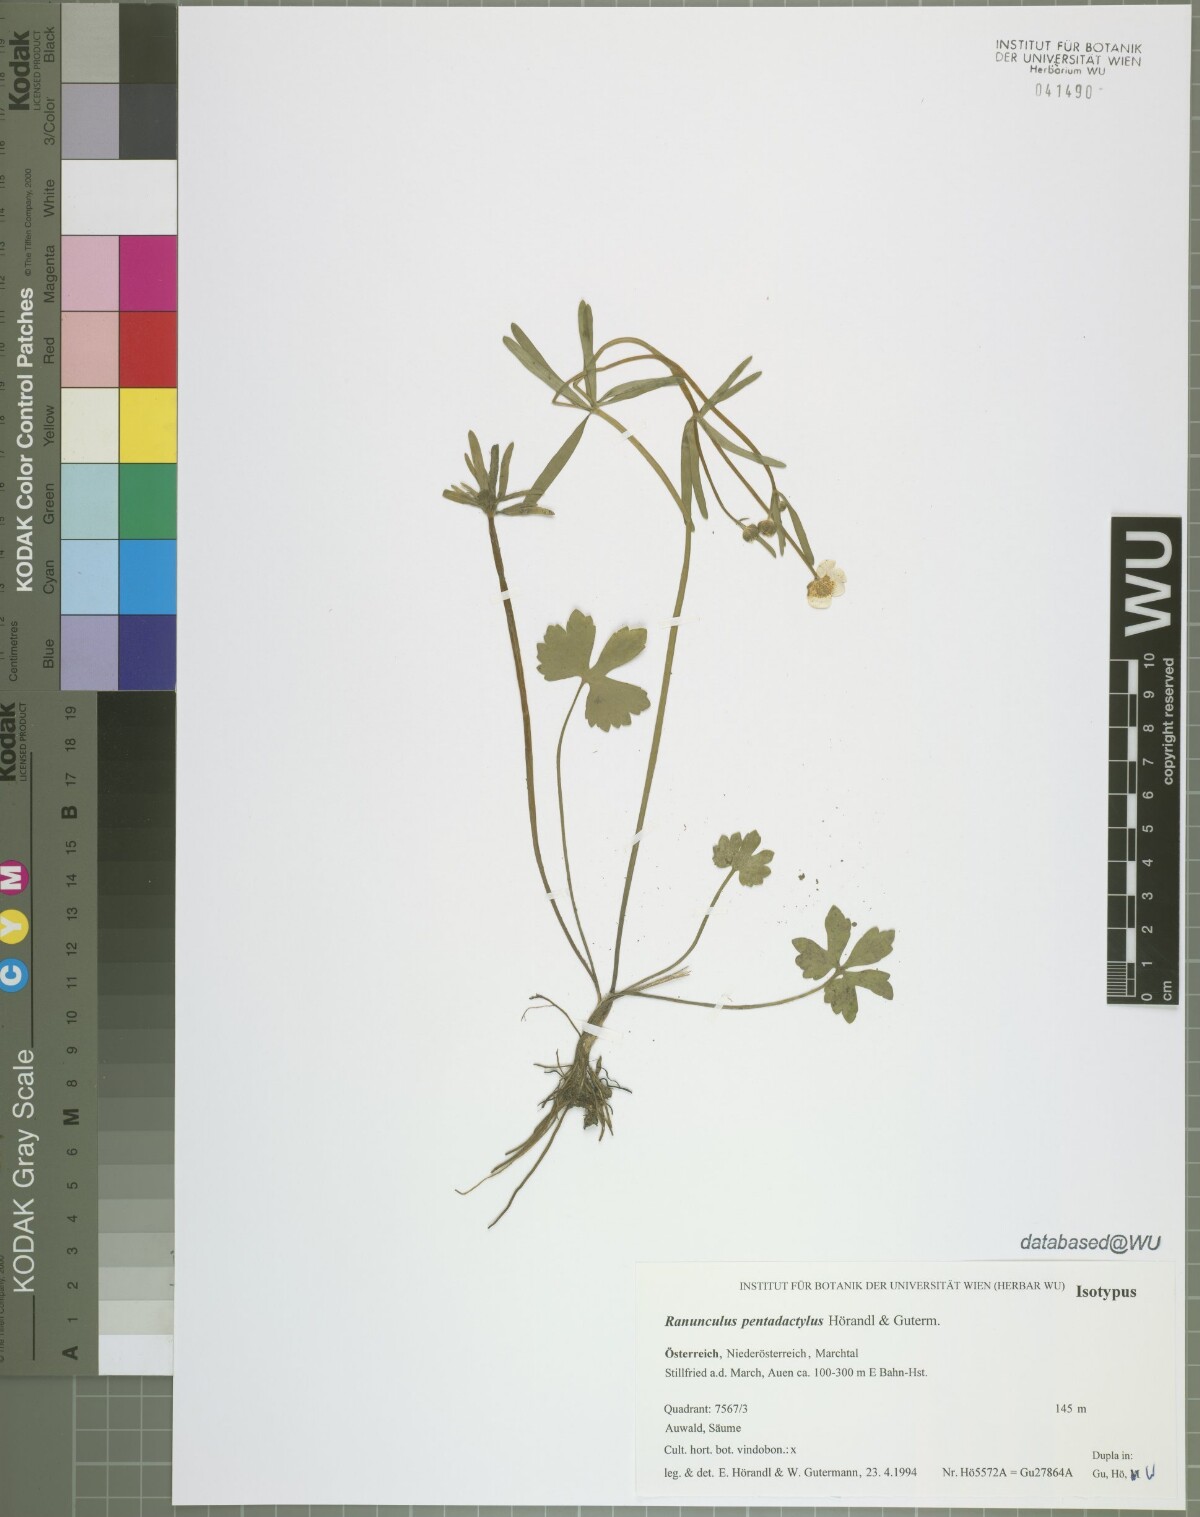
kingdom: Plantae
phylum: Tracheophyta
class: Magnoliopsida
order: Ranunculales
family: Ranunculaceae
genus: Ranunculus
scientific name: Ranunculus pentadactylus
